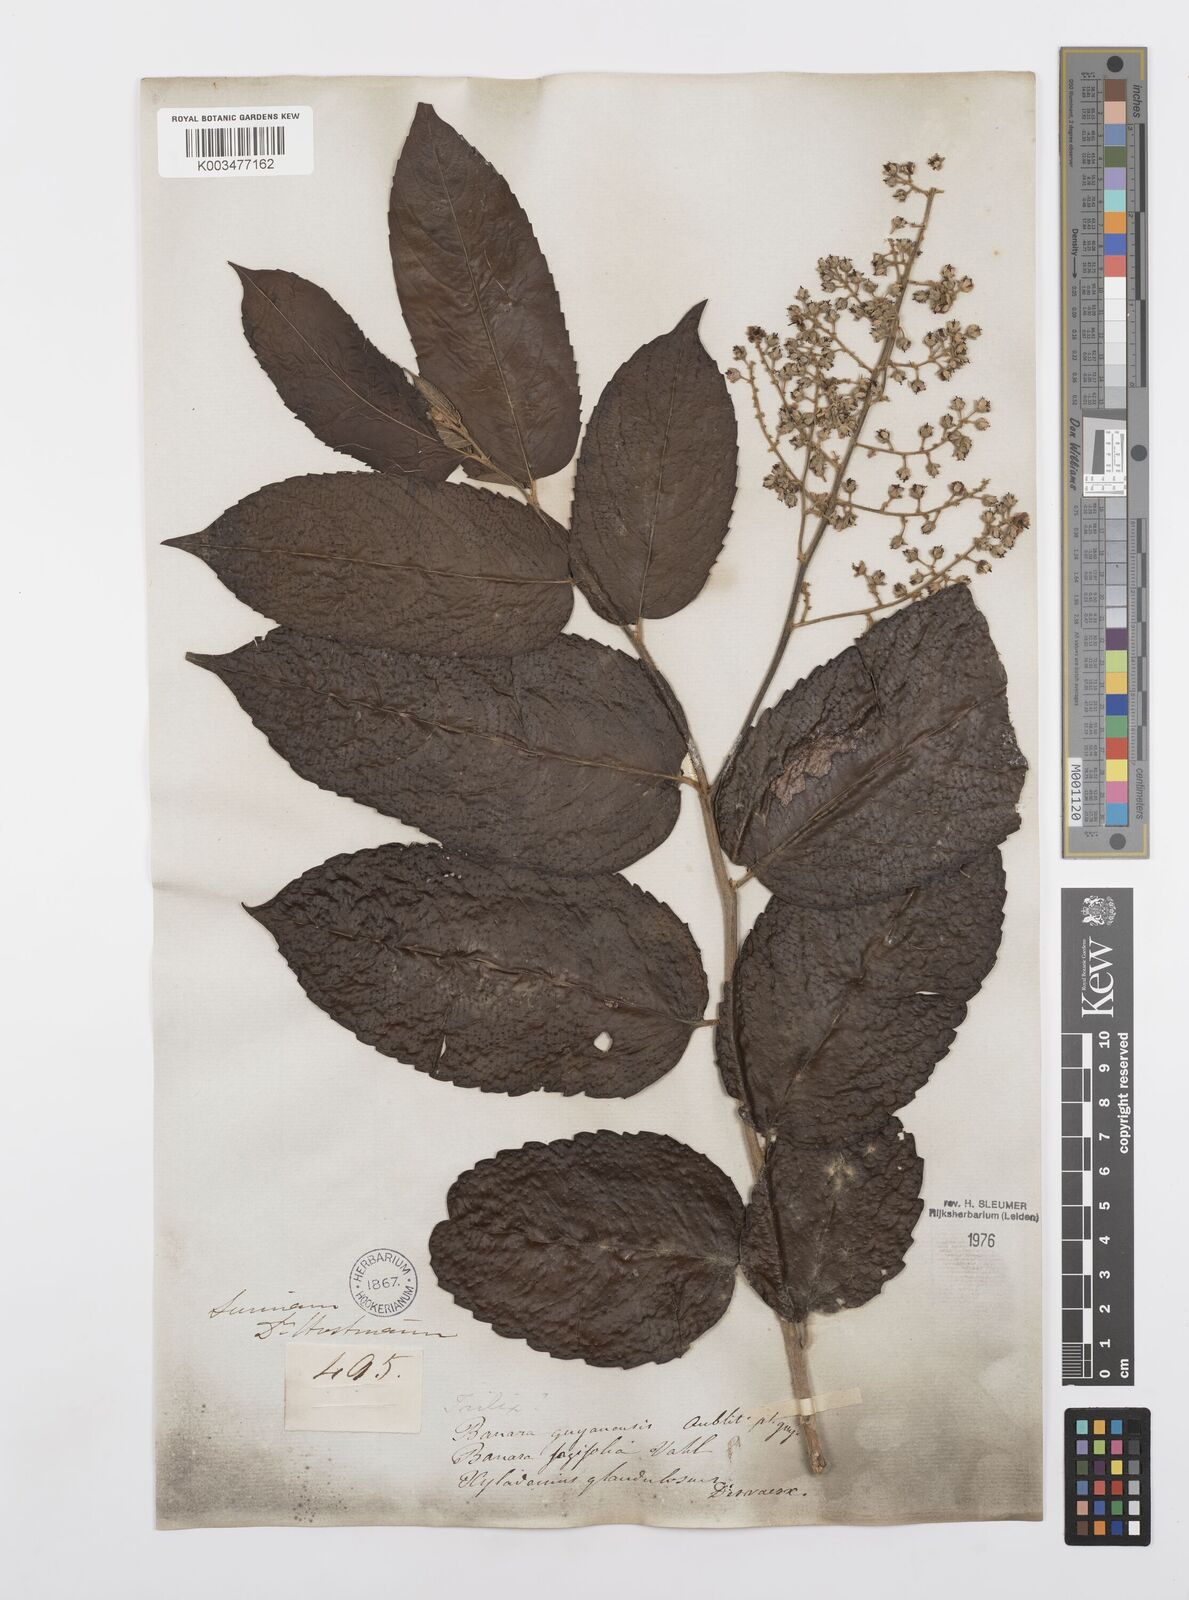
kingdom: Plantae
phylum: Tracheophyta
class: Magnoliopsida
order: Malpighiales
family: Salicaceae
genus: Banara
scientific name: Banara guianensis
